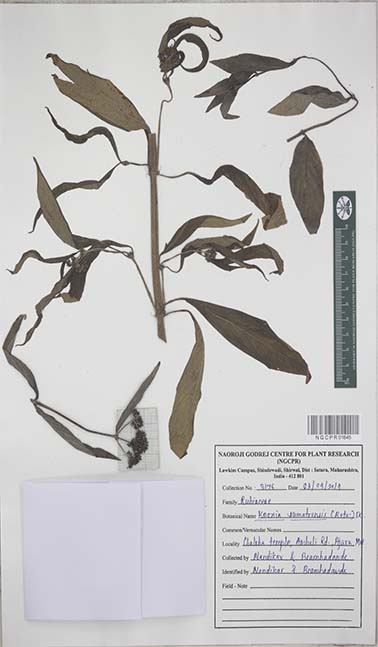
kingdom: Plantae
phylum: Tracheophyta
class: Magnoliopsida
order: Gentianales
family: Rubiaceae
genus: Knoxia
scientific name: Knoxia sumatrensis
